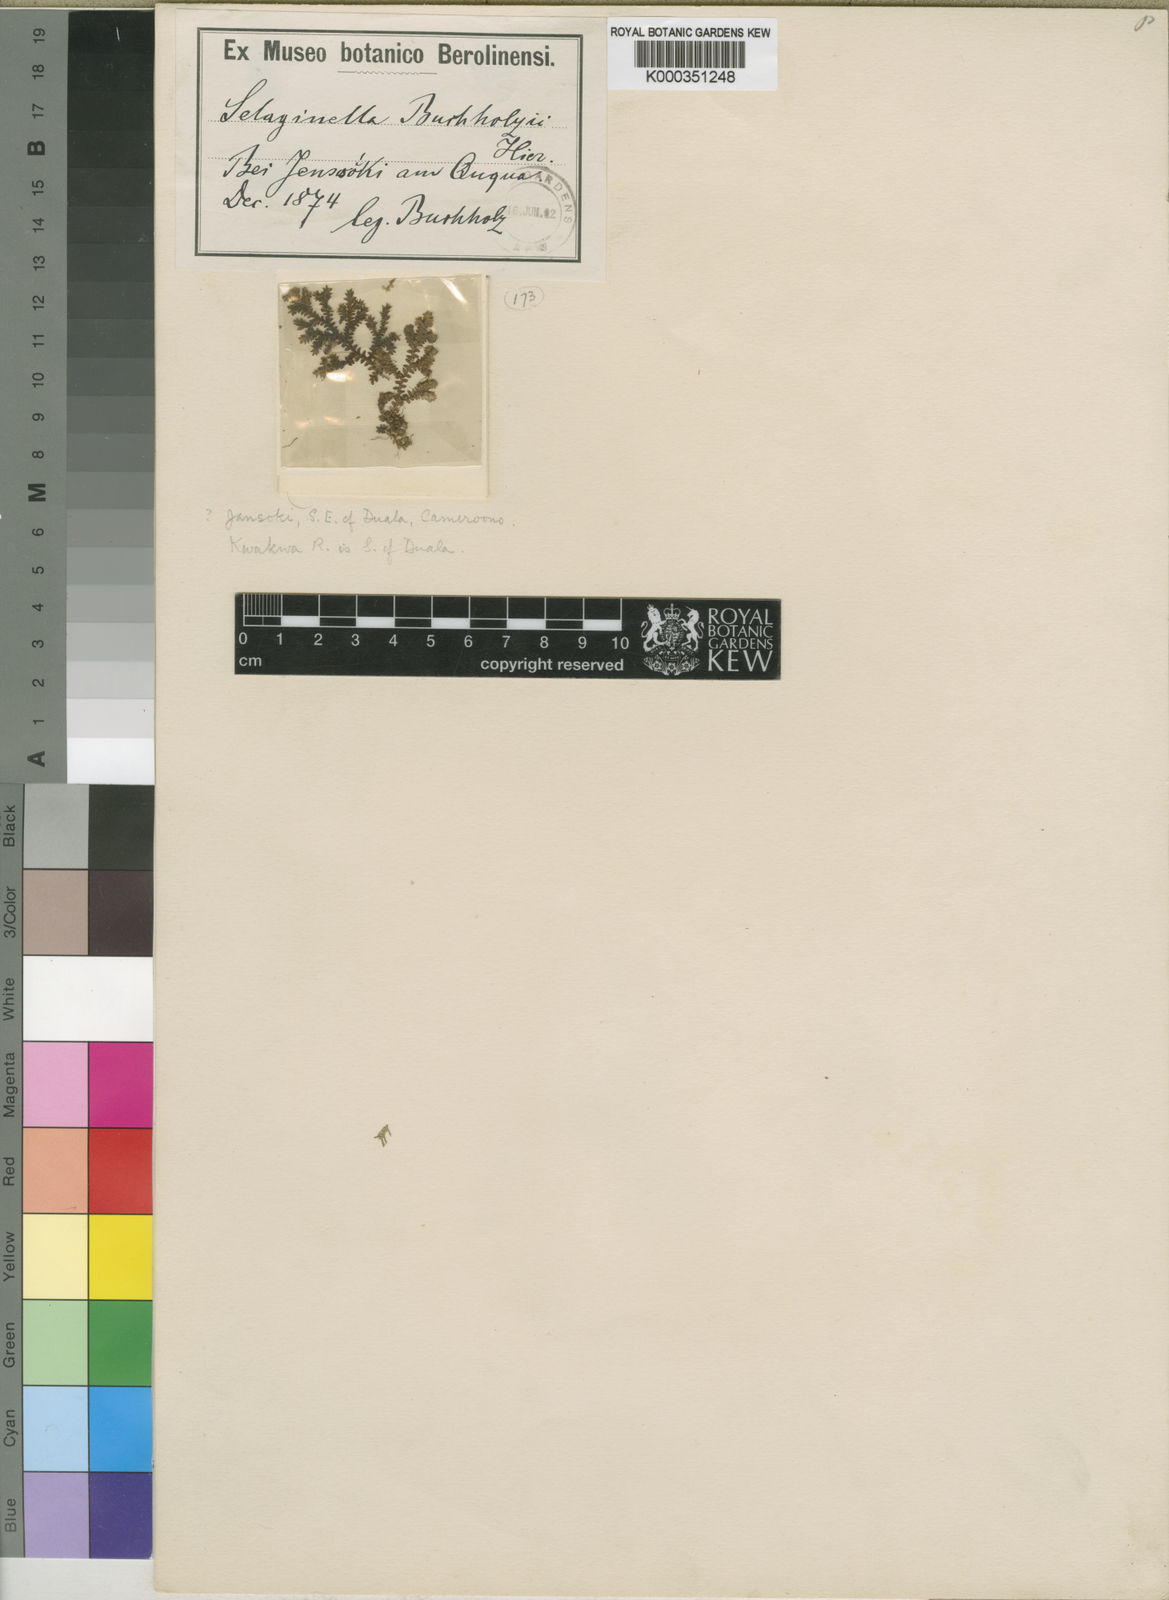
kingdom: Plantae
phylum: Tracheophyta
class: Lycopodiopsida
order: Selaginellales
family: Selaginellaceae
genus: Selaginella
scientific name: Selaginella buchholzii
